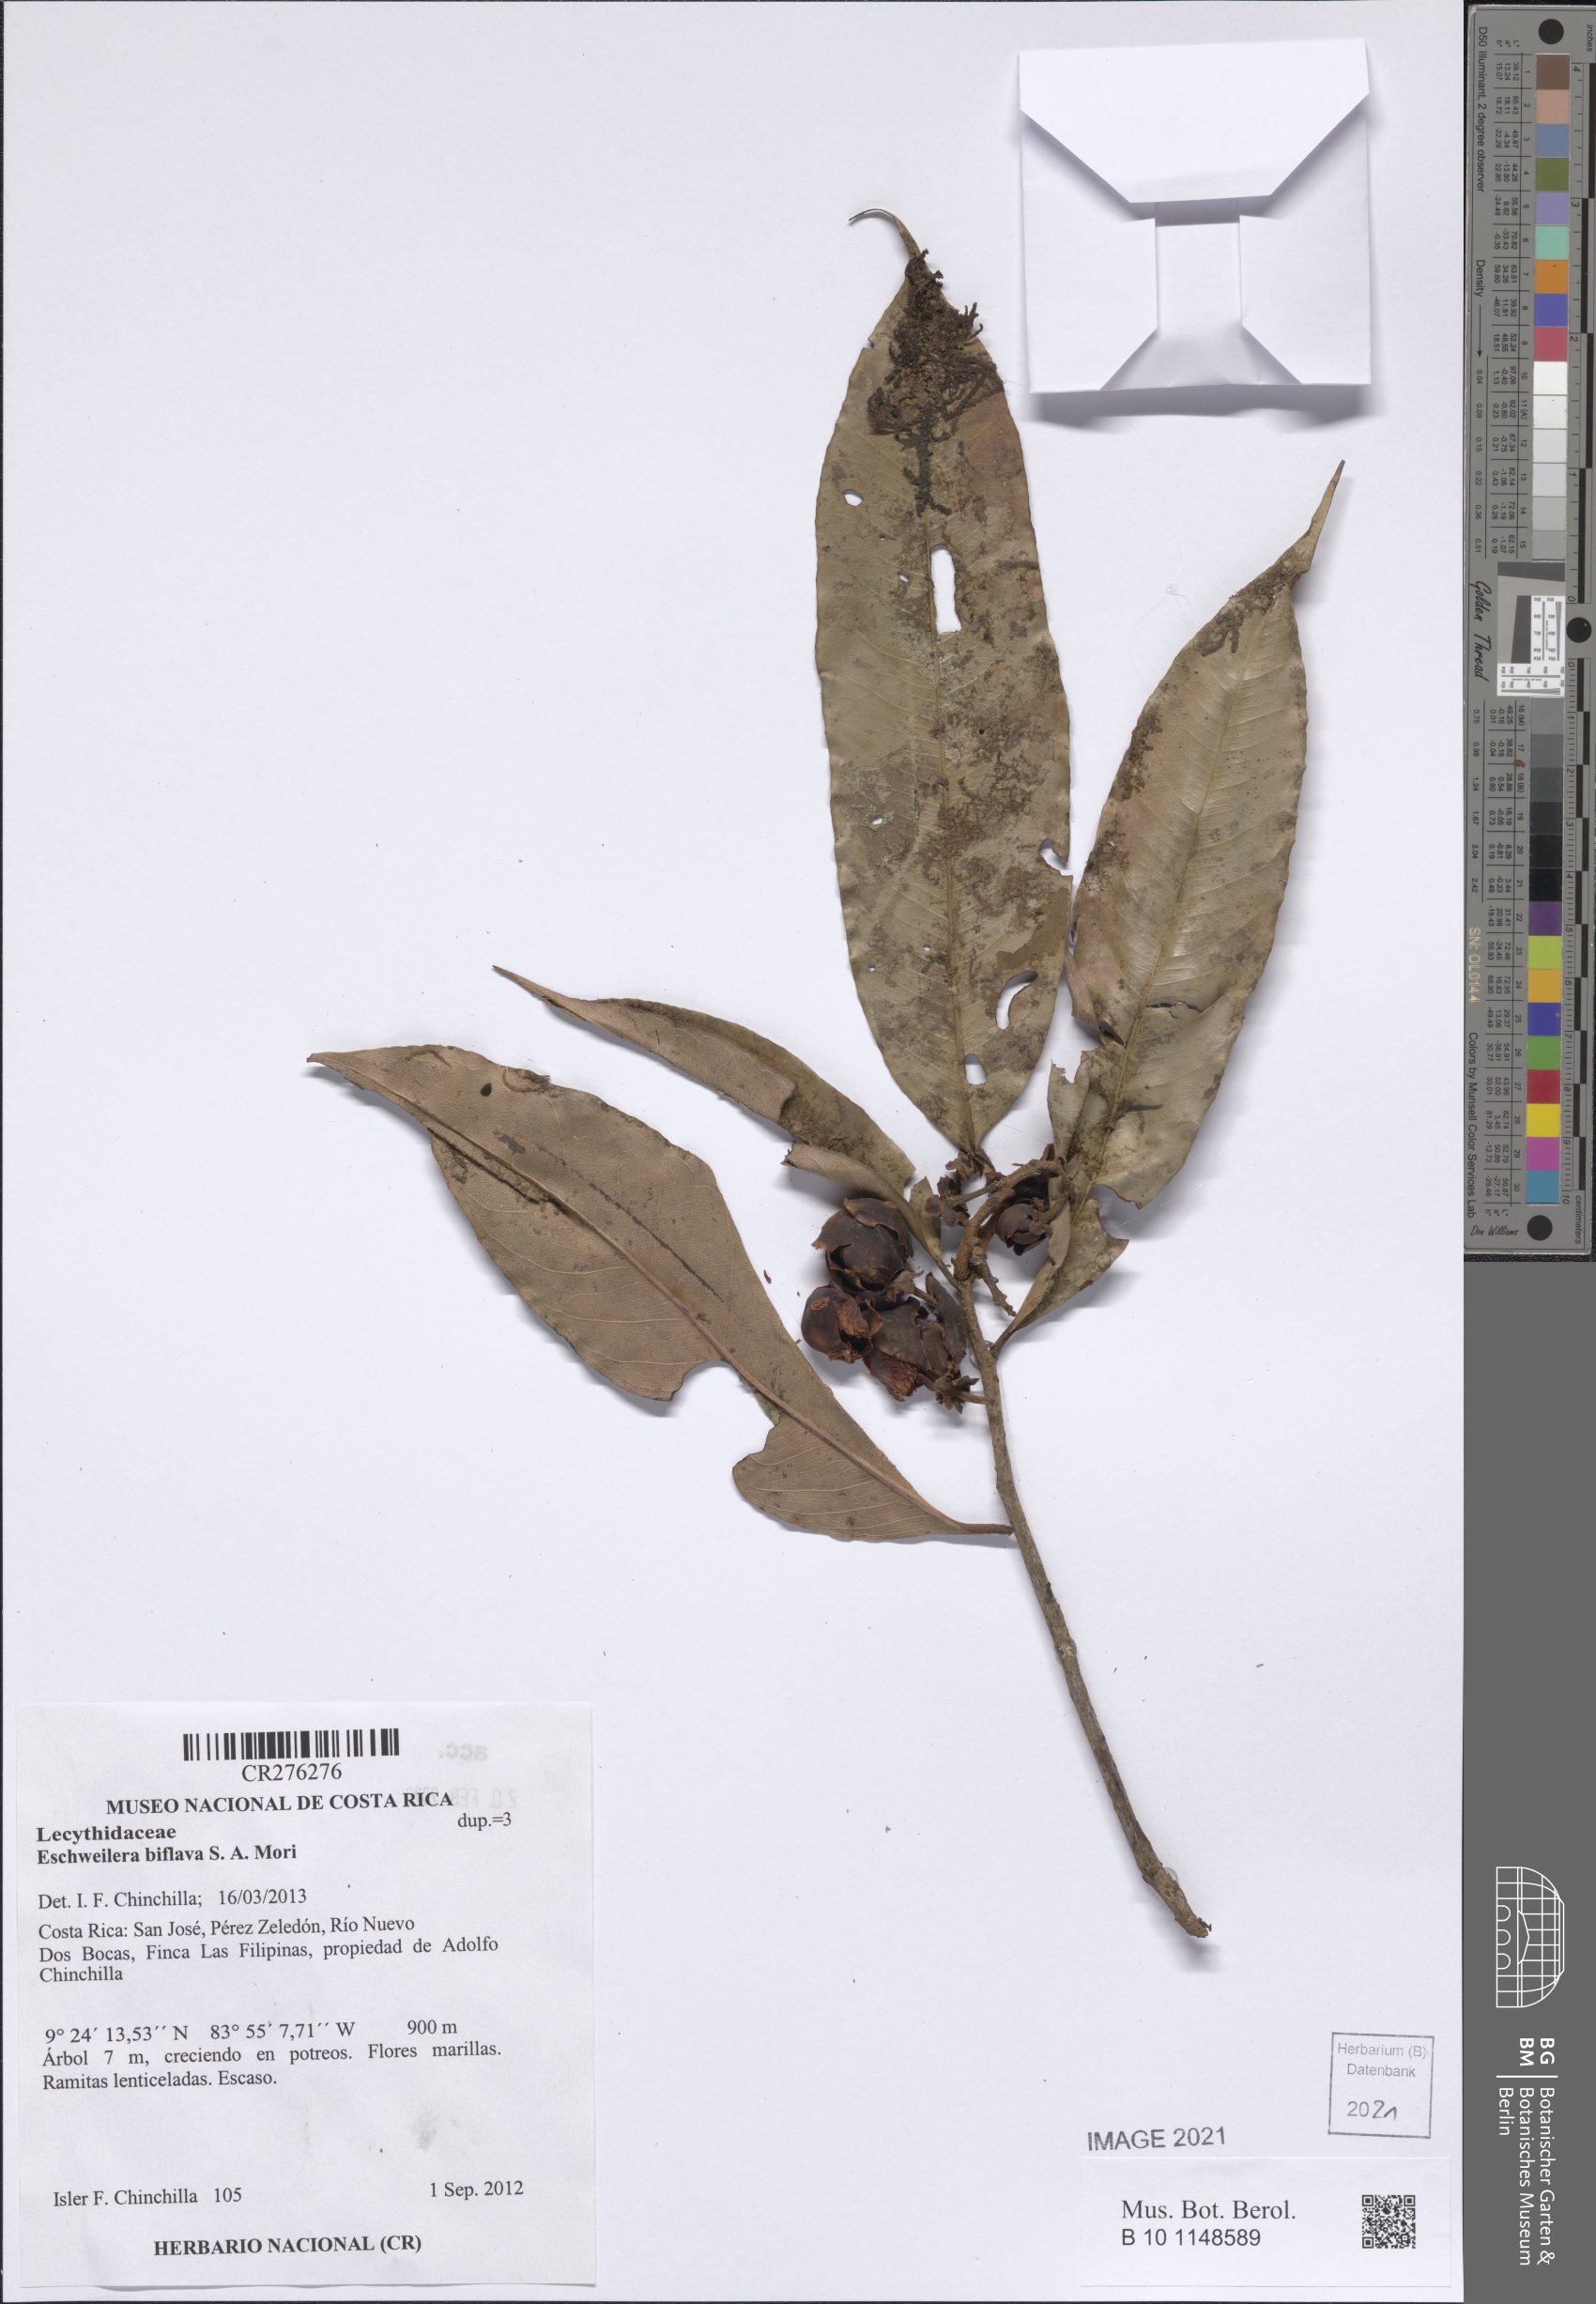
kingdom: Plantae
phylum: Tracheophyta
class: Magnoliopsida
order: Ericales
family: Lecythidaceae
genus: Eschweilera
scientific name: Eschweilera biflava
